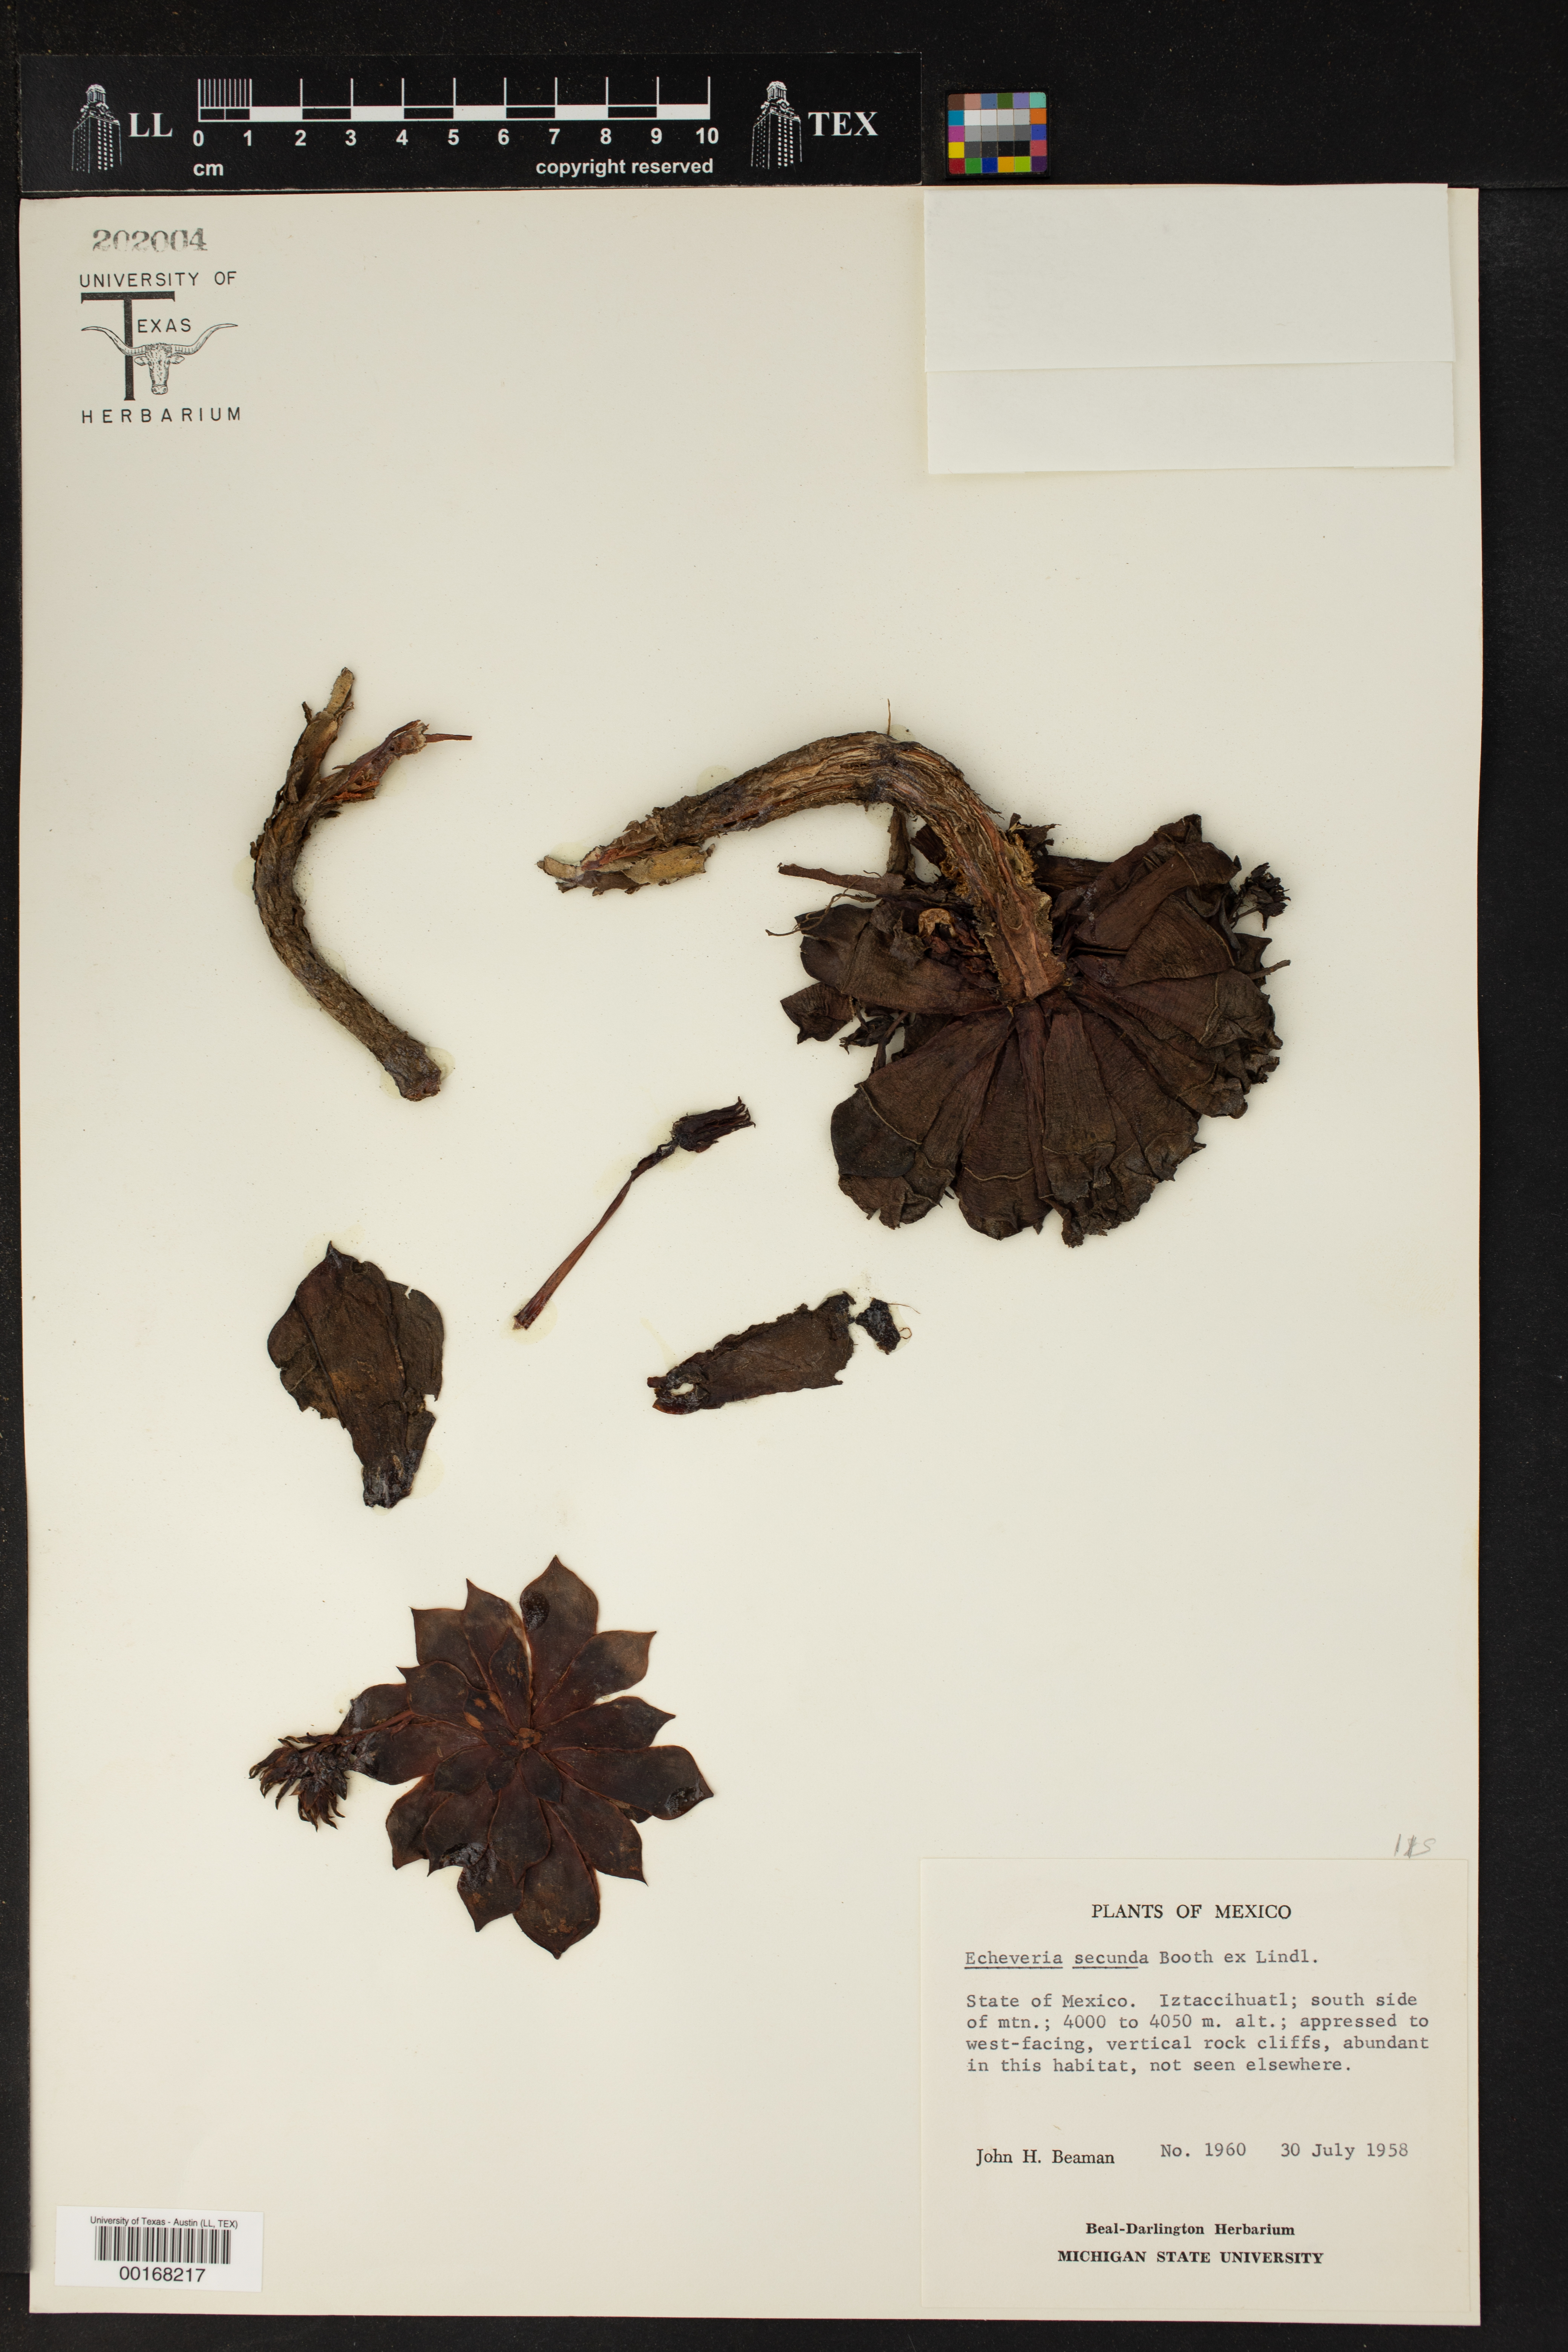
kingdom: Plantae
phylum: Tracheophyta
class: Magnoliopsida
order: Saxifragales
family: Crassulaceae
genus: Echeveria
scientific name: Echeveria secunda
